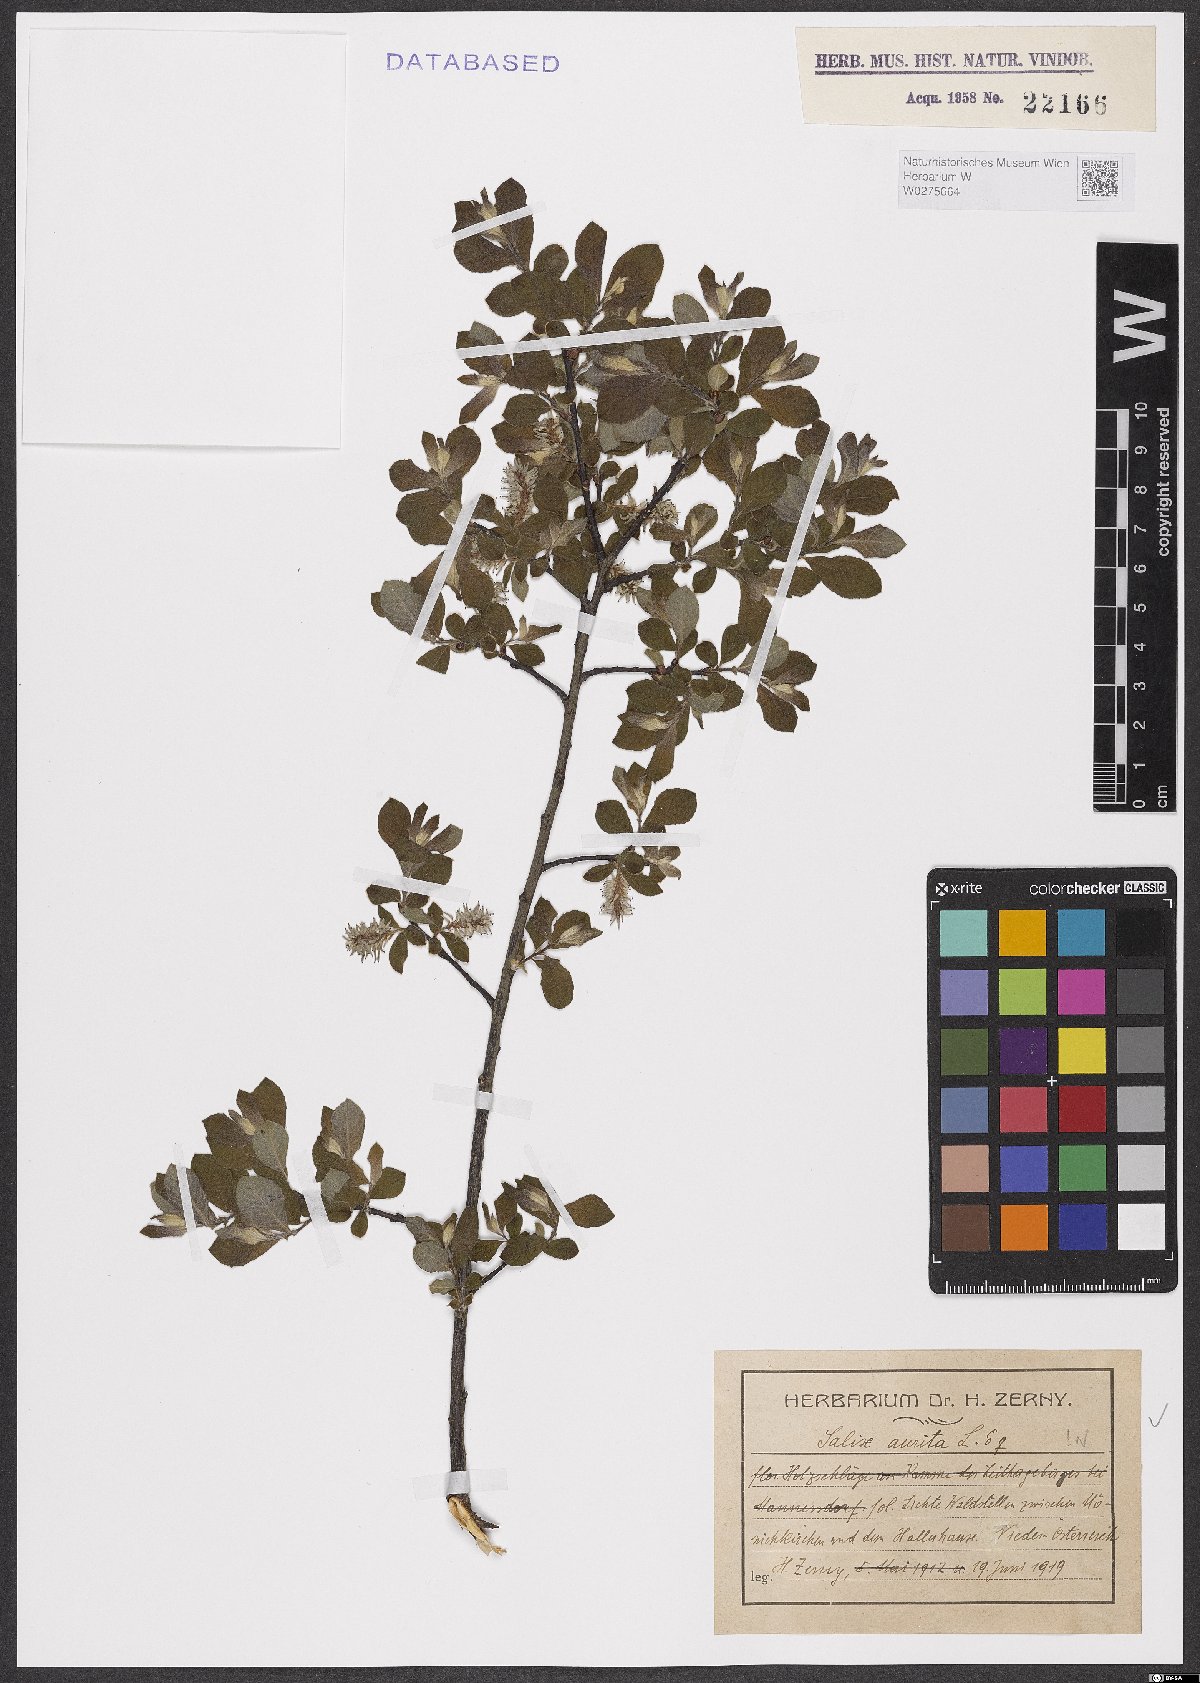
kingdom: Plantae
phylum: Tracheophyta
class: Magnoliopsida
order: Malpighiales
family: Salicaceae
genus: Salix
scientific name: Salix aurita
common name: Eared willow
